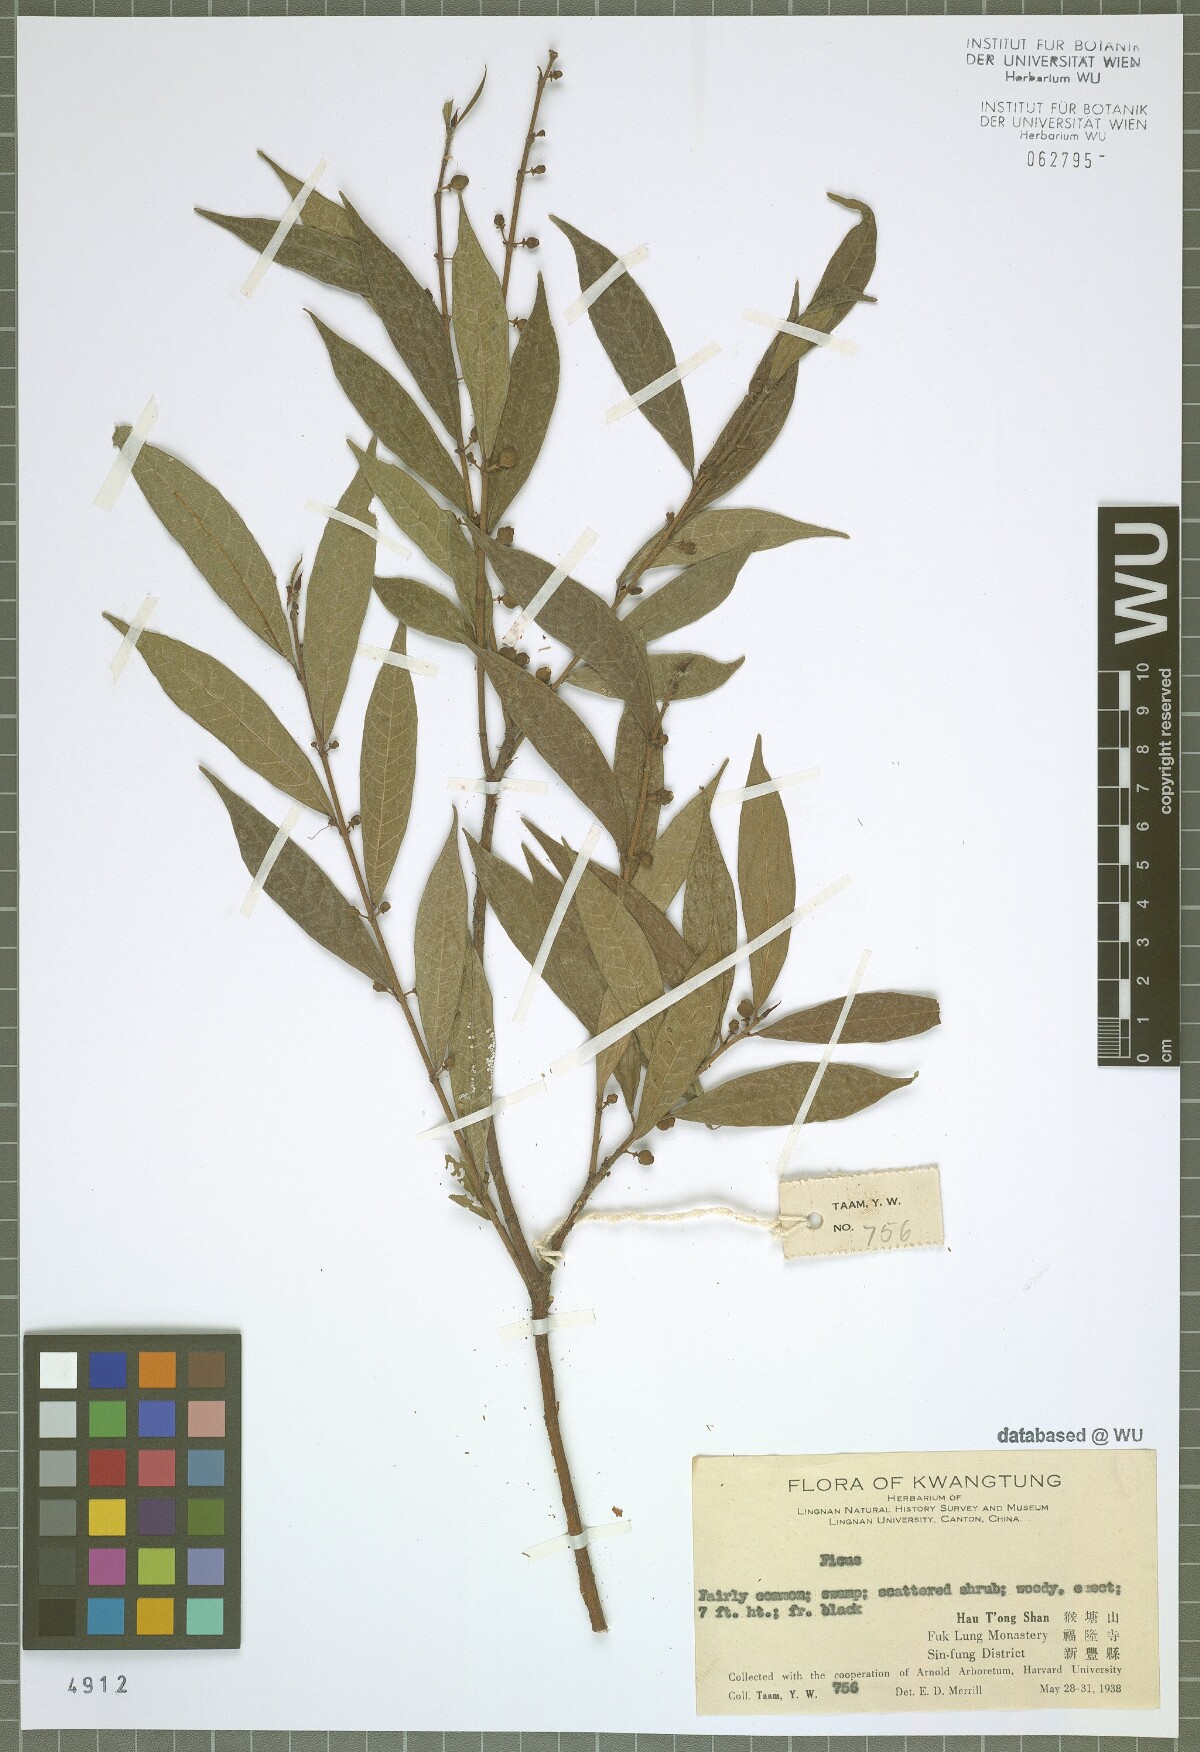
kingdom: Plantae
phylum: Tracheophyta
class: Magnoliopsida
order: Rosales
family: Moraceae
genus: Ficus
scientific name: Ficus
